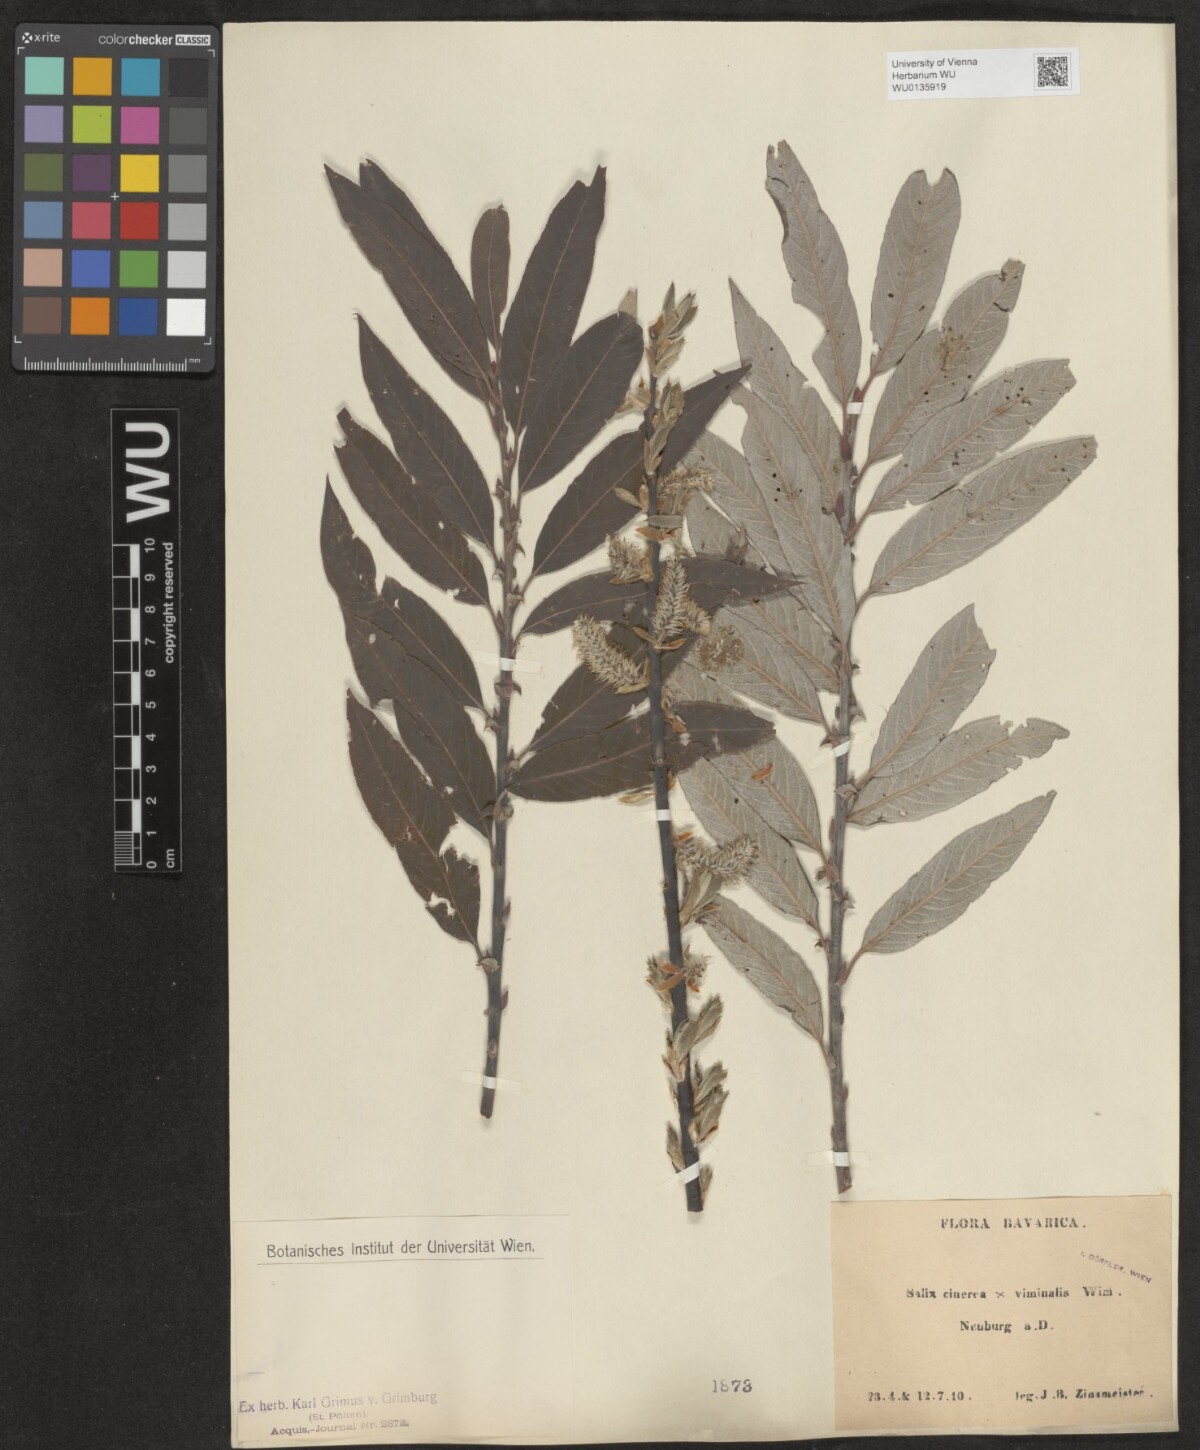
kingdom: Plantae
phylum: Tracheophyta
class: Magnoliopsida
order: Malpighiales
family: Salicaceae
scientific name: Salicaceae
